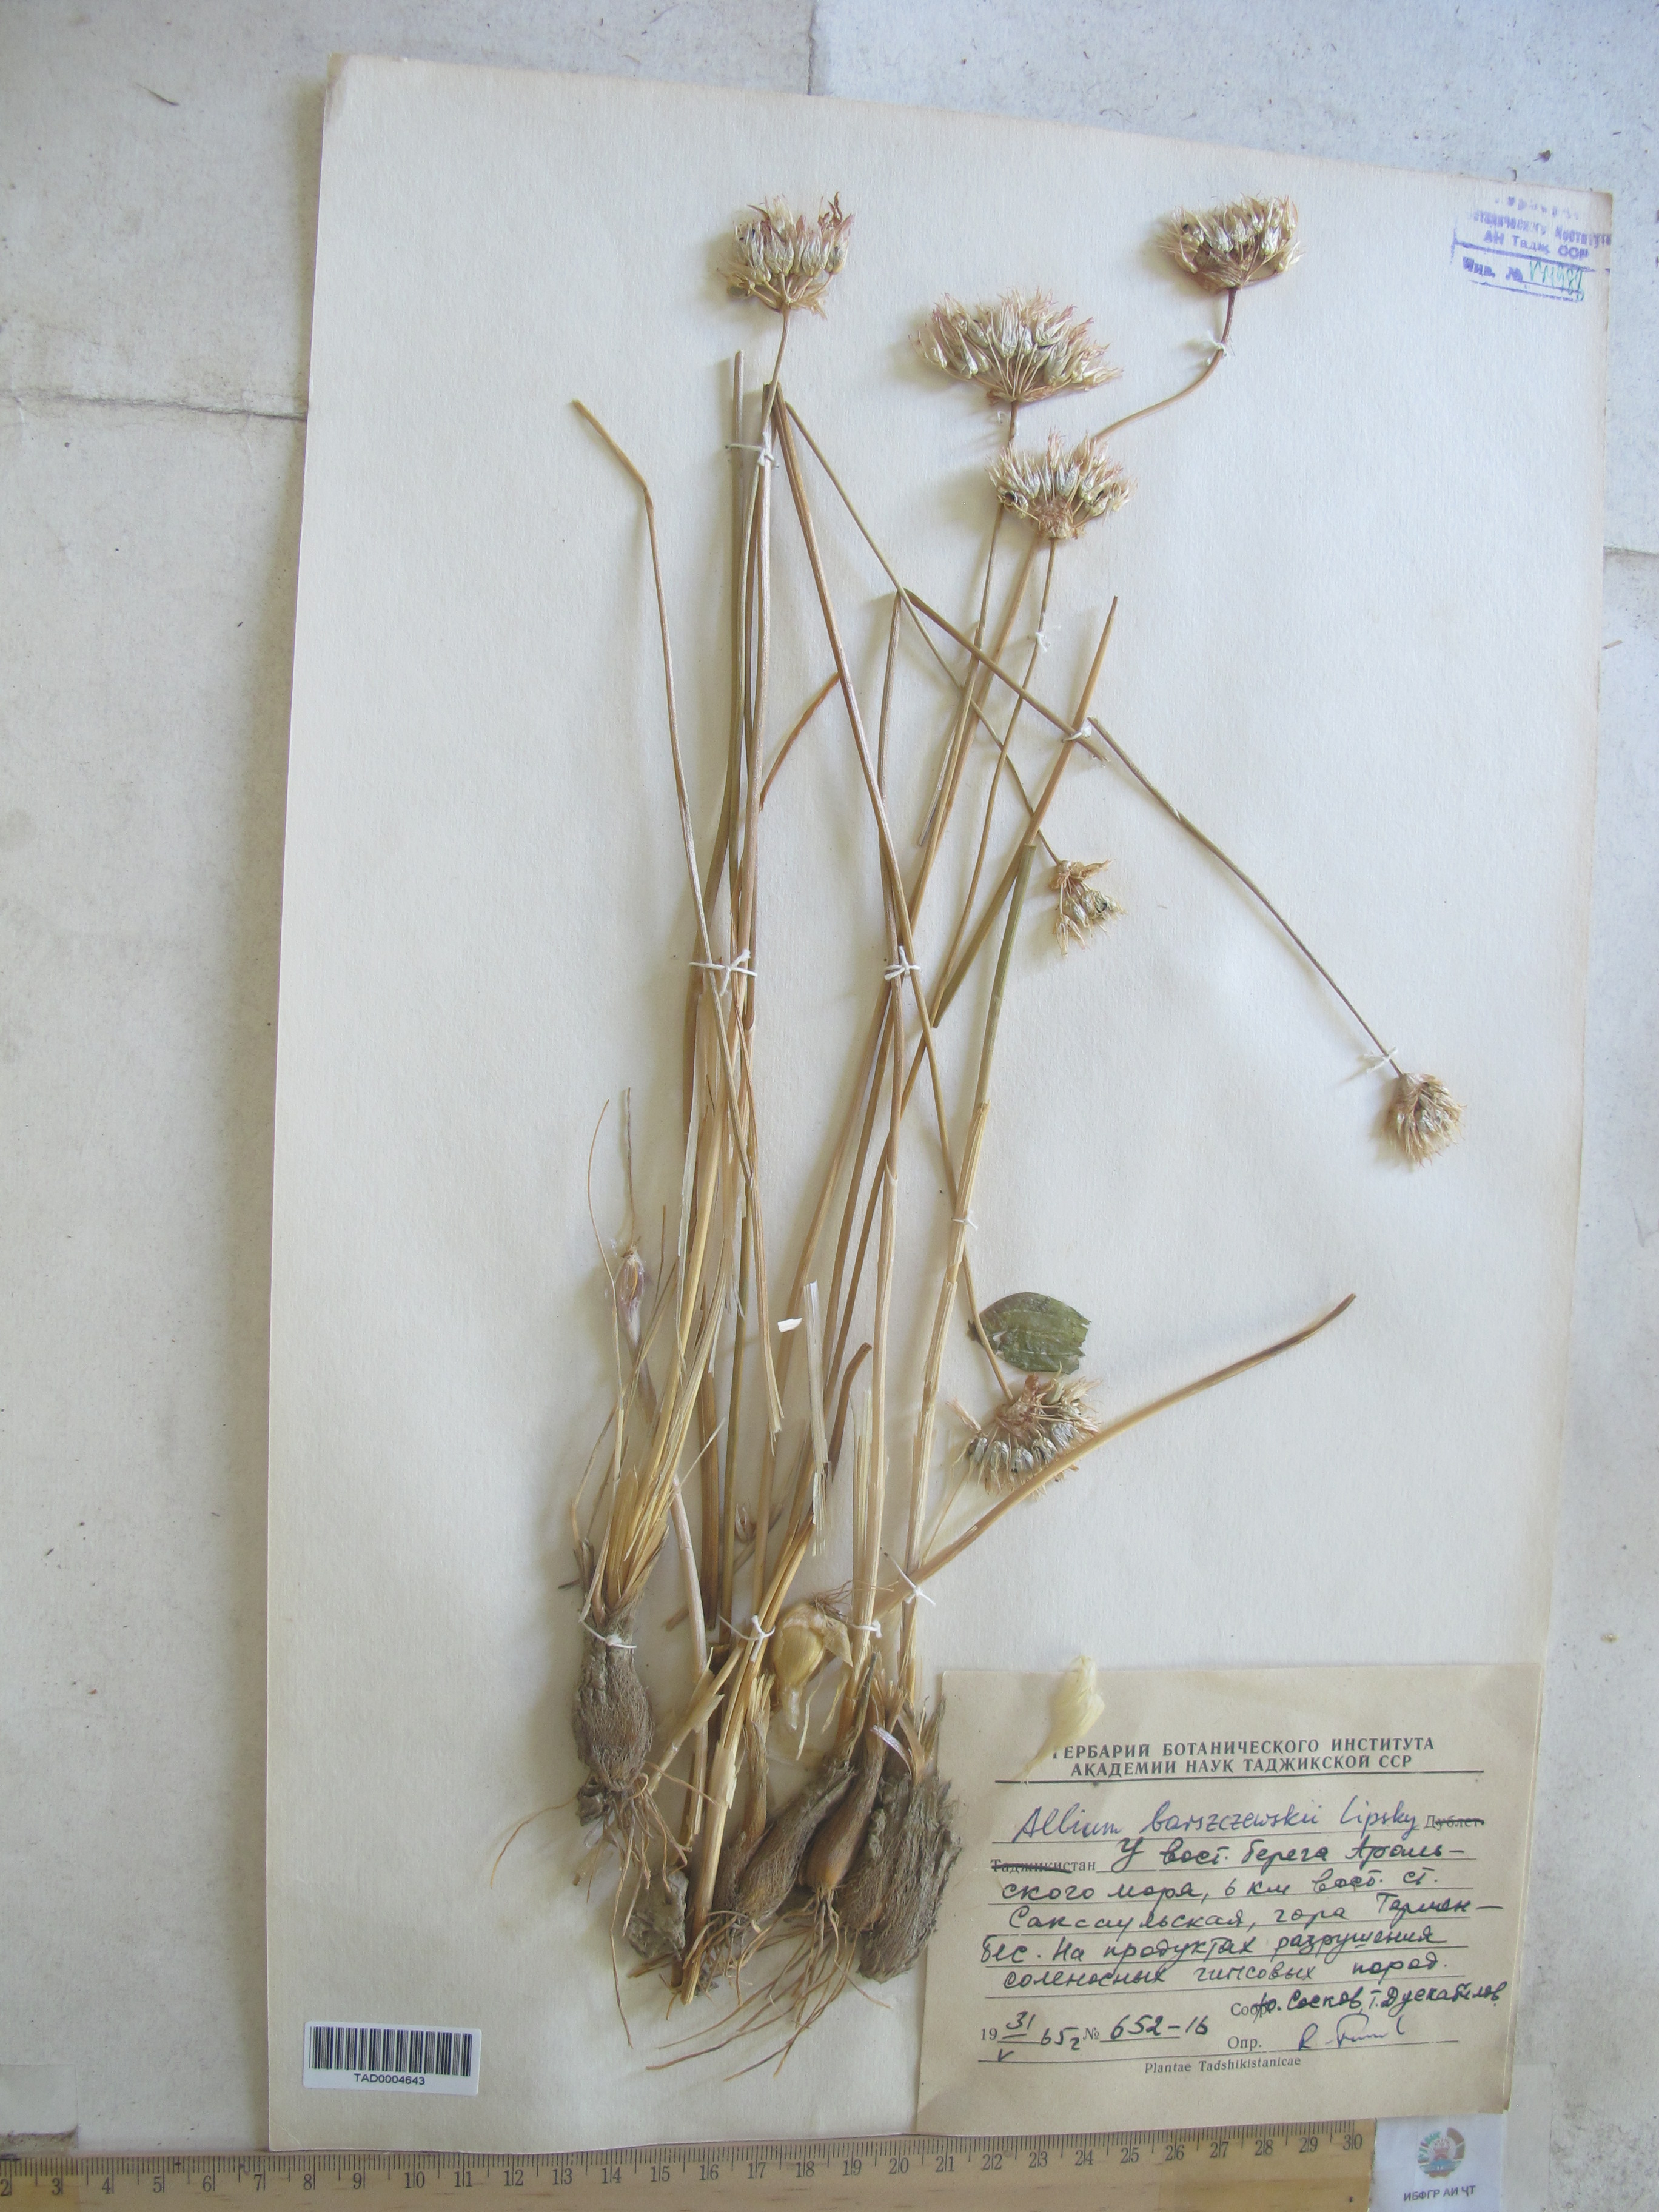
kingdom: Plantae
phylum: Tracheophyta
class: Liliopsida
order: Asparagales
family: Amaryllidaceae
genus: Allium
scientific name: Allium barsczewskii
